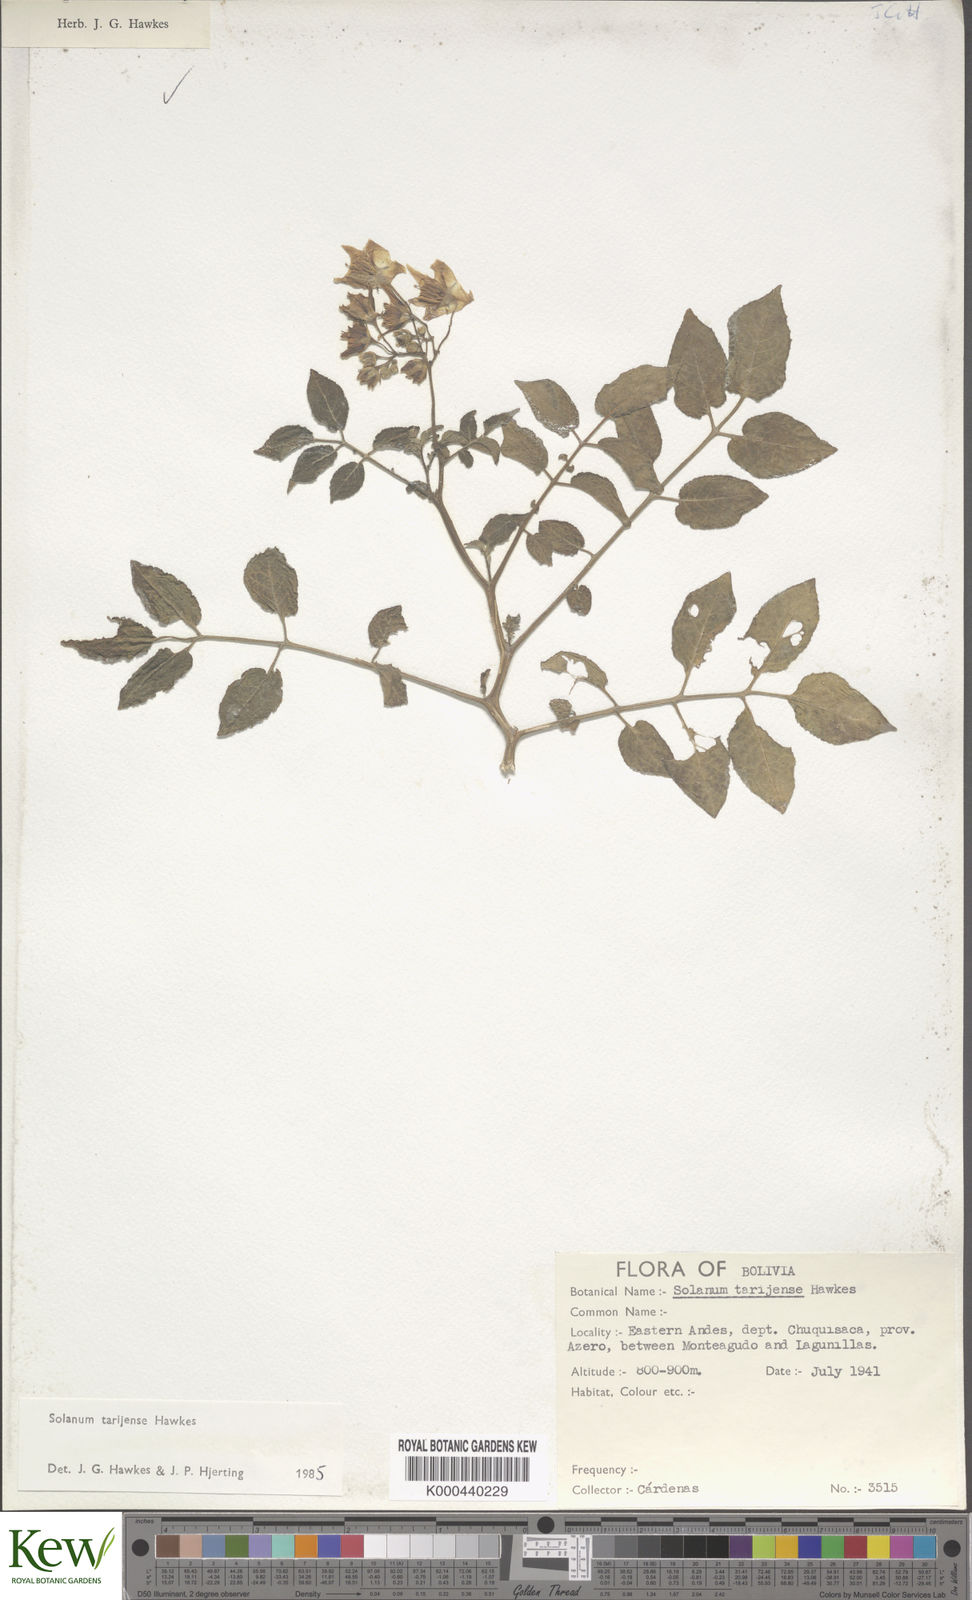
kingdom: Plantae
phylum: Tracheophyta
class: Magnoliopsida
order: Solanales
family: Solanaceae
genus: Solanum
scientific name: Solanum tarijense
